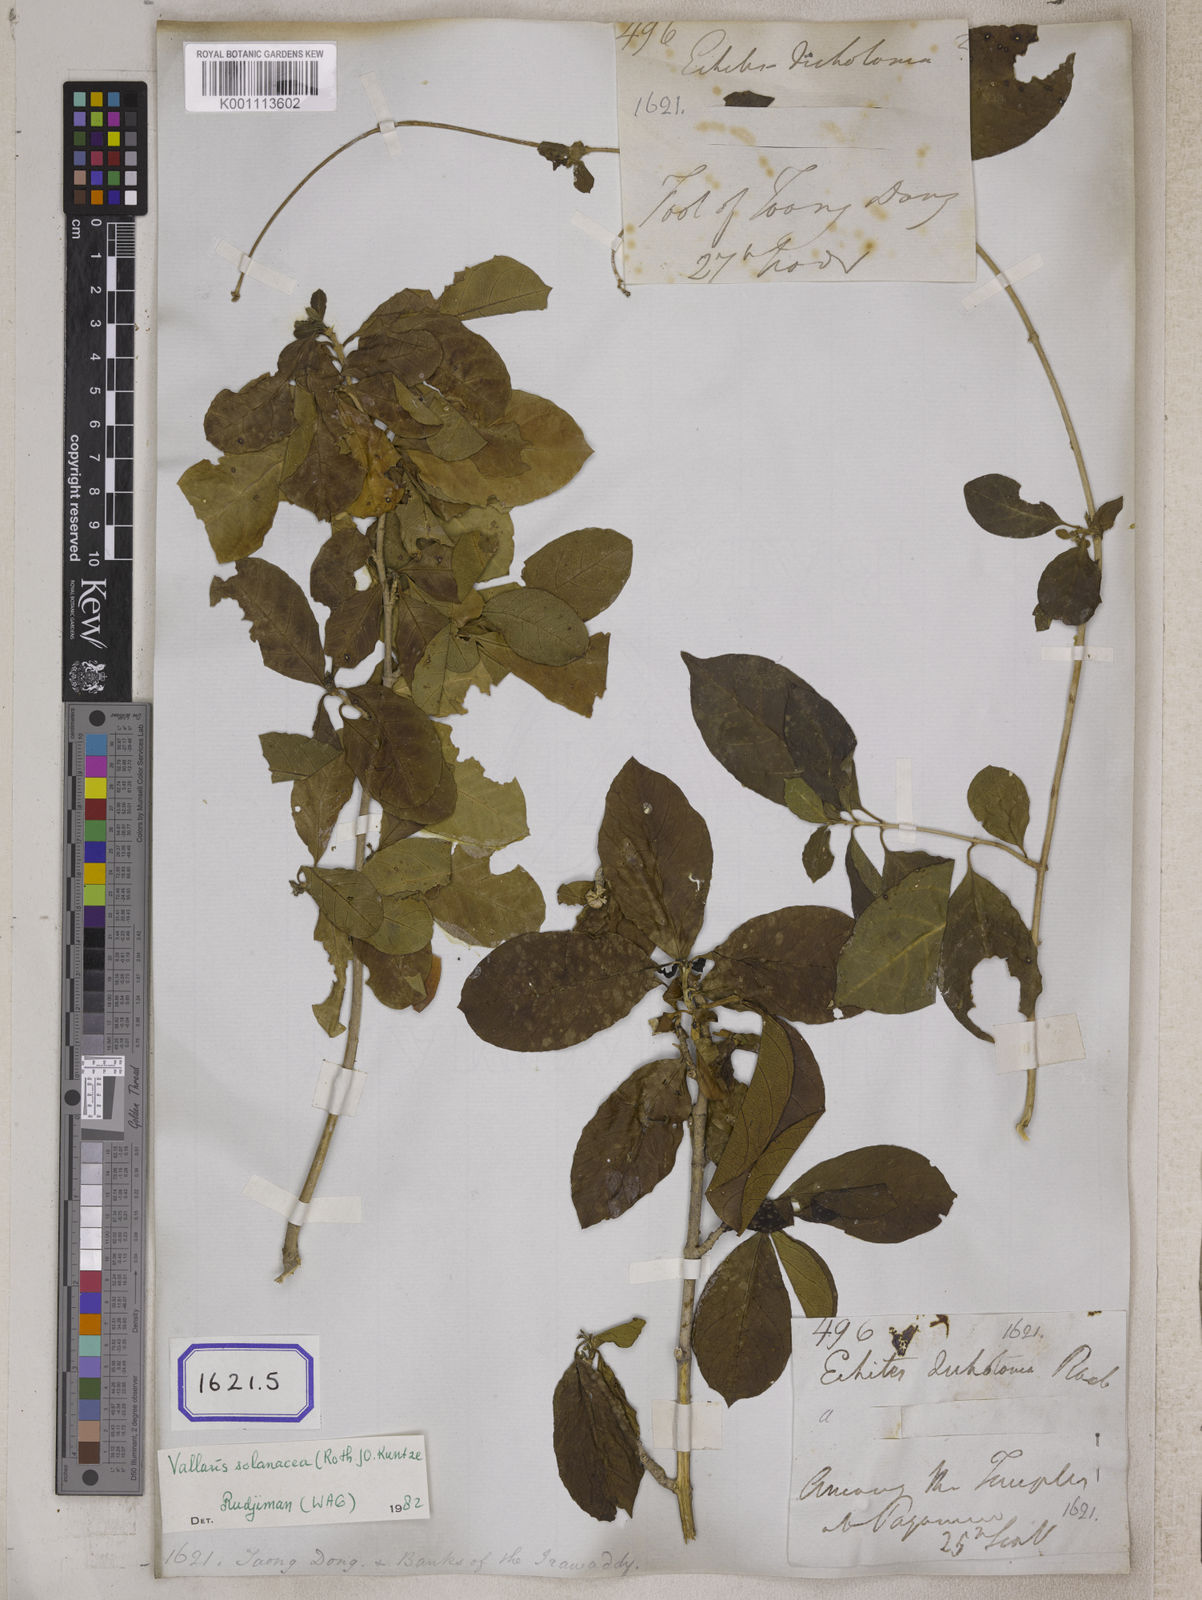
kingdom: Plantae
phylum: Tracheophyta
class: Magnoliopsida
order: Gentianales
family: Apocynaceae
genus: Vallaris
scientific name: Vallaris glabra
